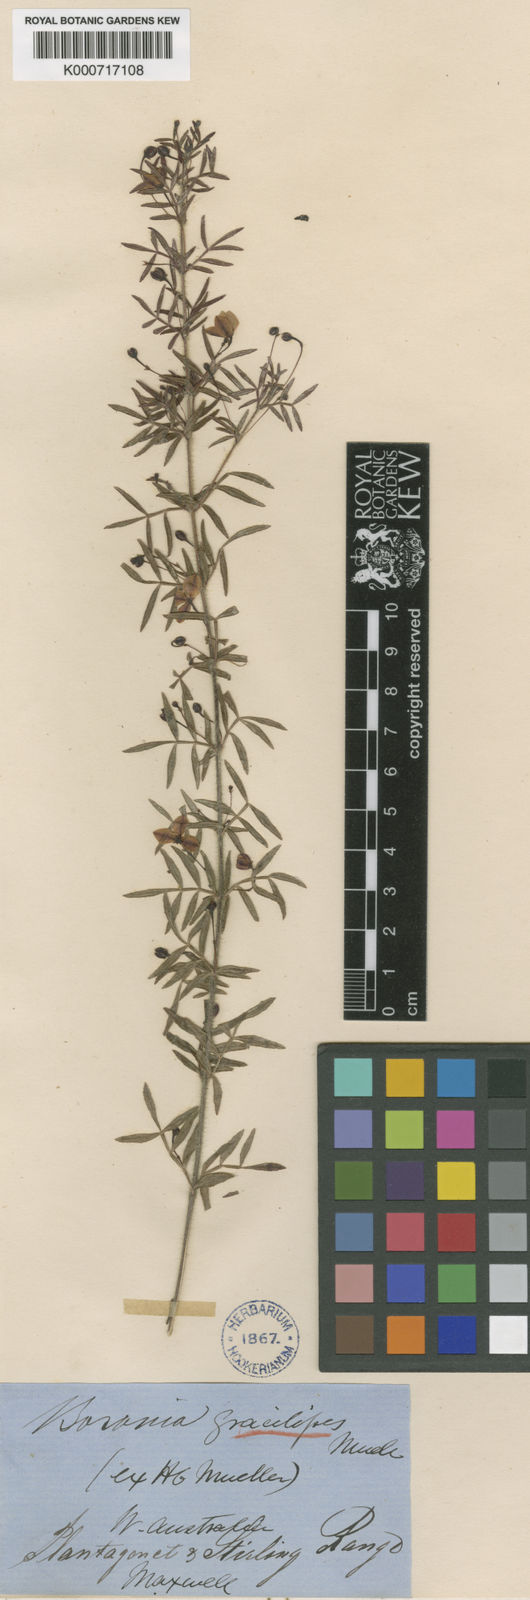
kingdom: Plantae
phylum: Tracheophyta
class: Magnoliopsida
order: Sapindales
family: Rutaceae
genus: Boronia
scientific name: Boronia gracilipes
